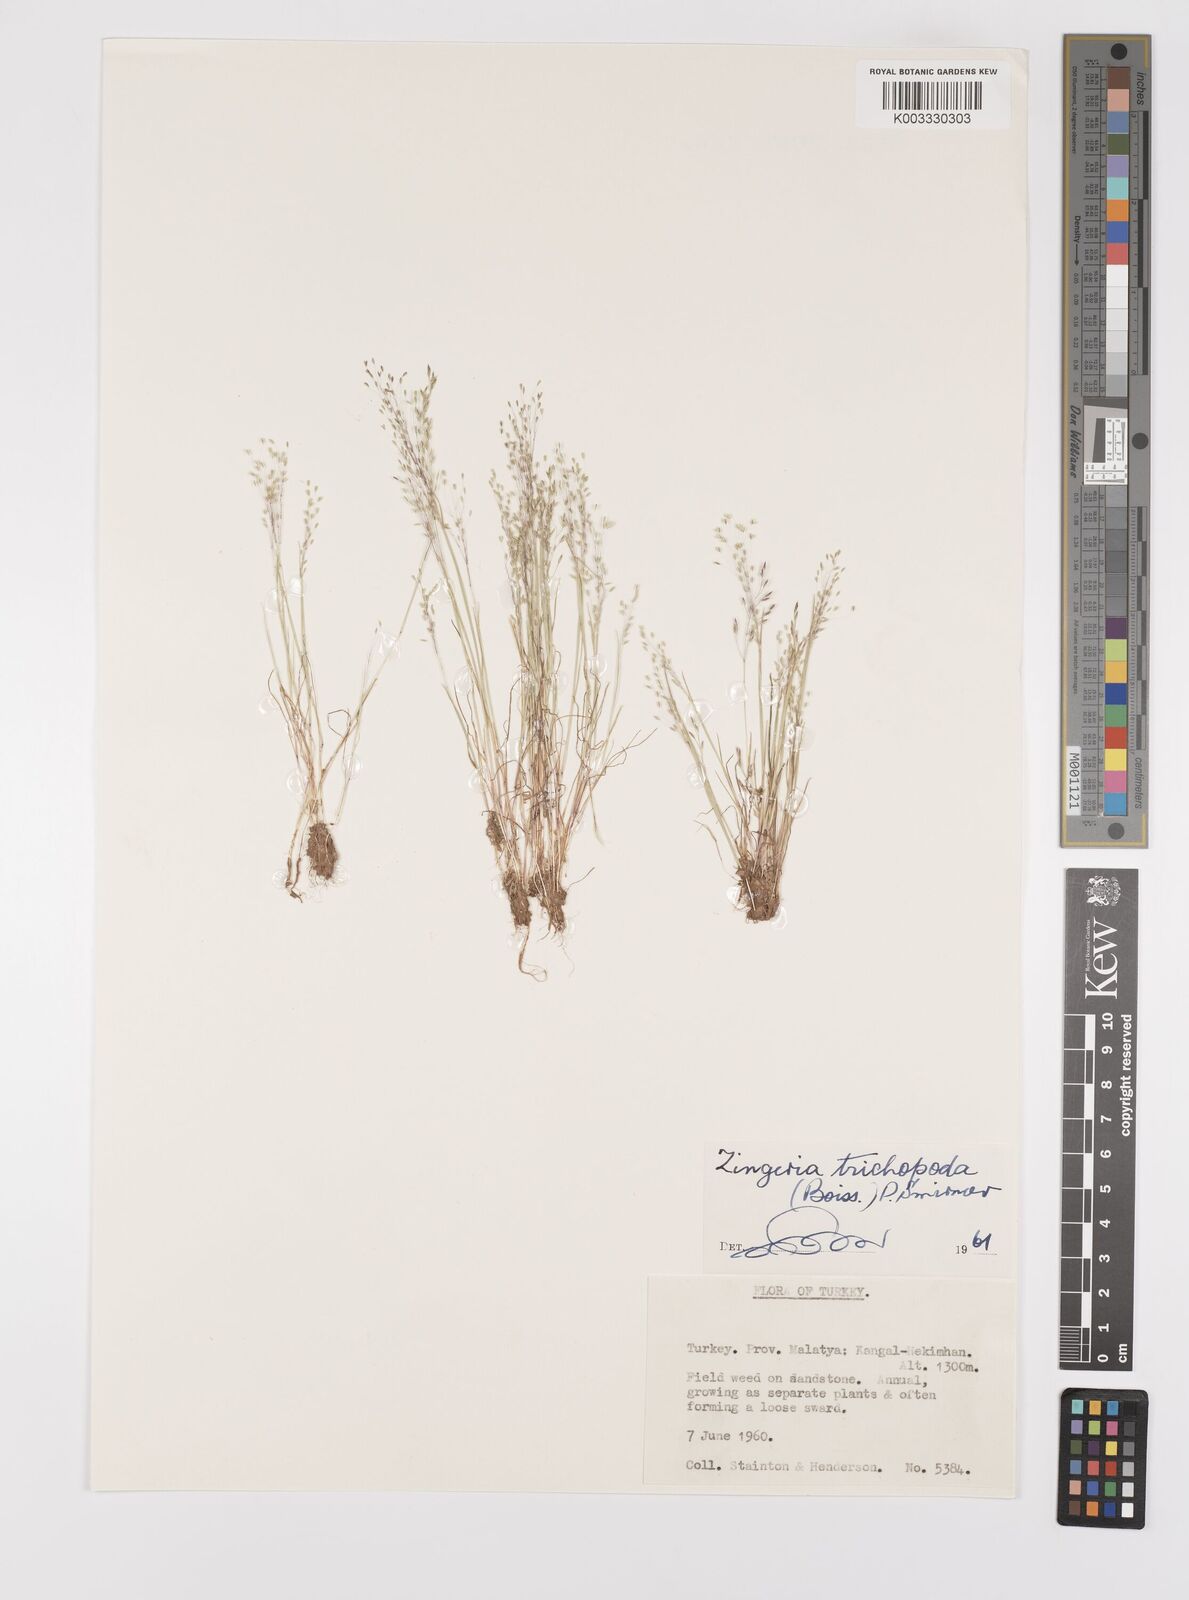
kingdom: Plantae
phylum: Tracheophyta
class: Liliopsida
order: Poales
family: Poaceae
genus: Colpodium
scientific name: Colpodium trichopodum
